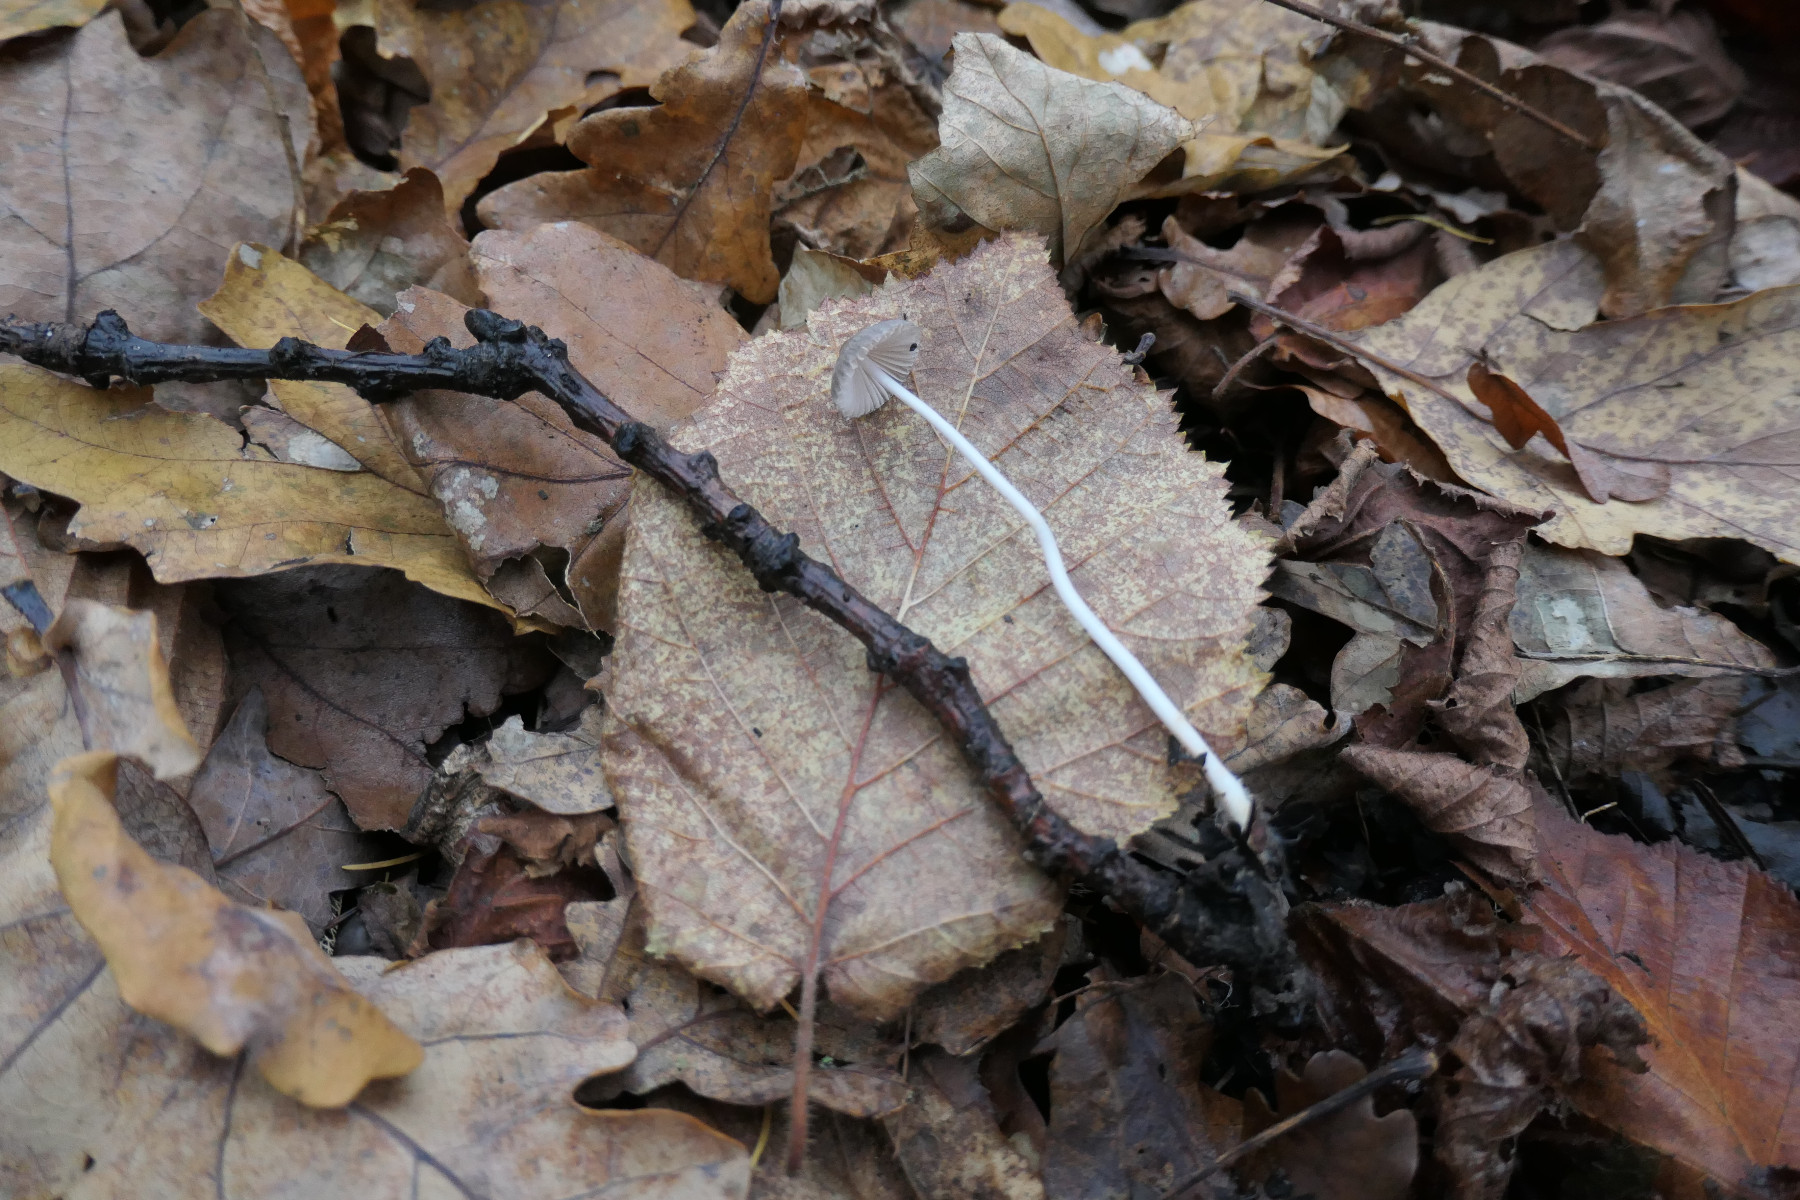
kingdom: Fungi
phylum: Basidiomycota
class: Agaricomycetes
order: Agaricales
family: Mycenaceae
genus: Mycena
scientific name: Mycena vitilis
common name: blankstokket huesvamp
